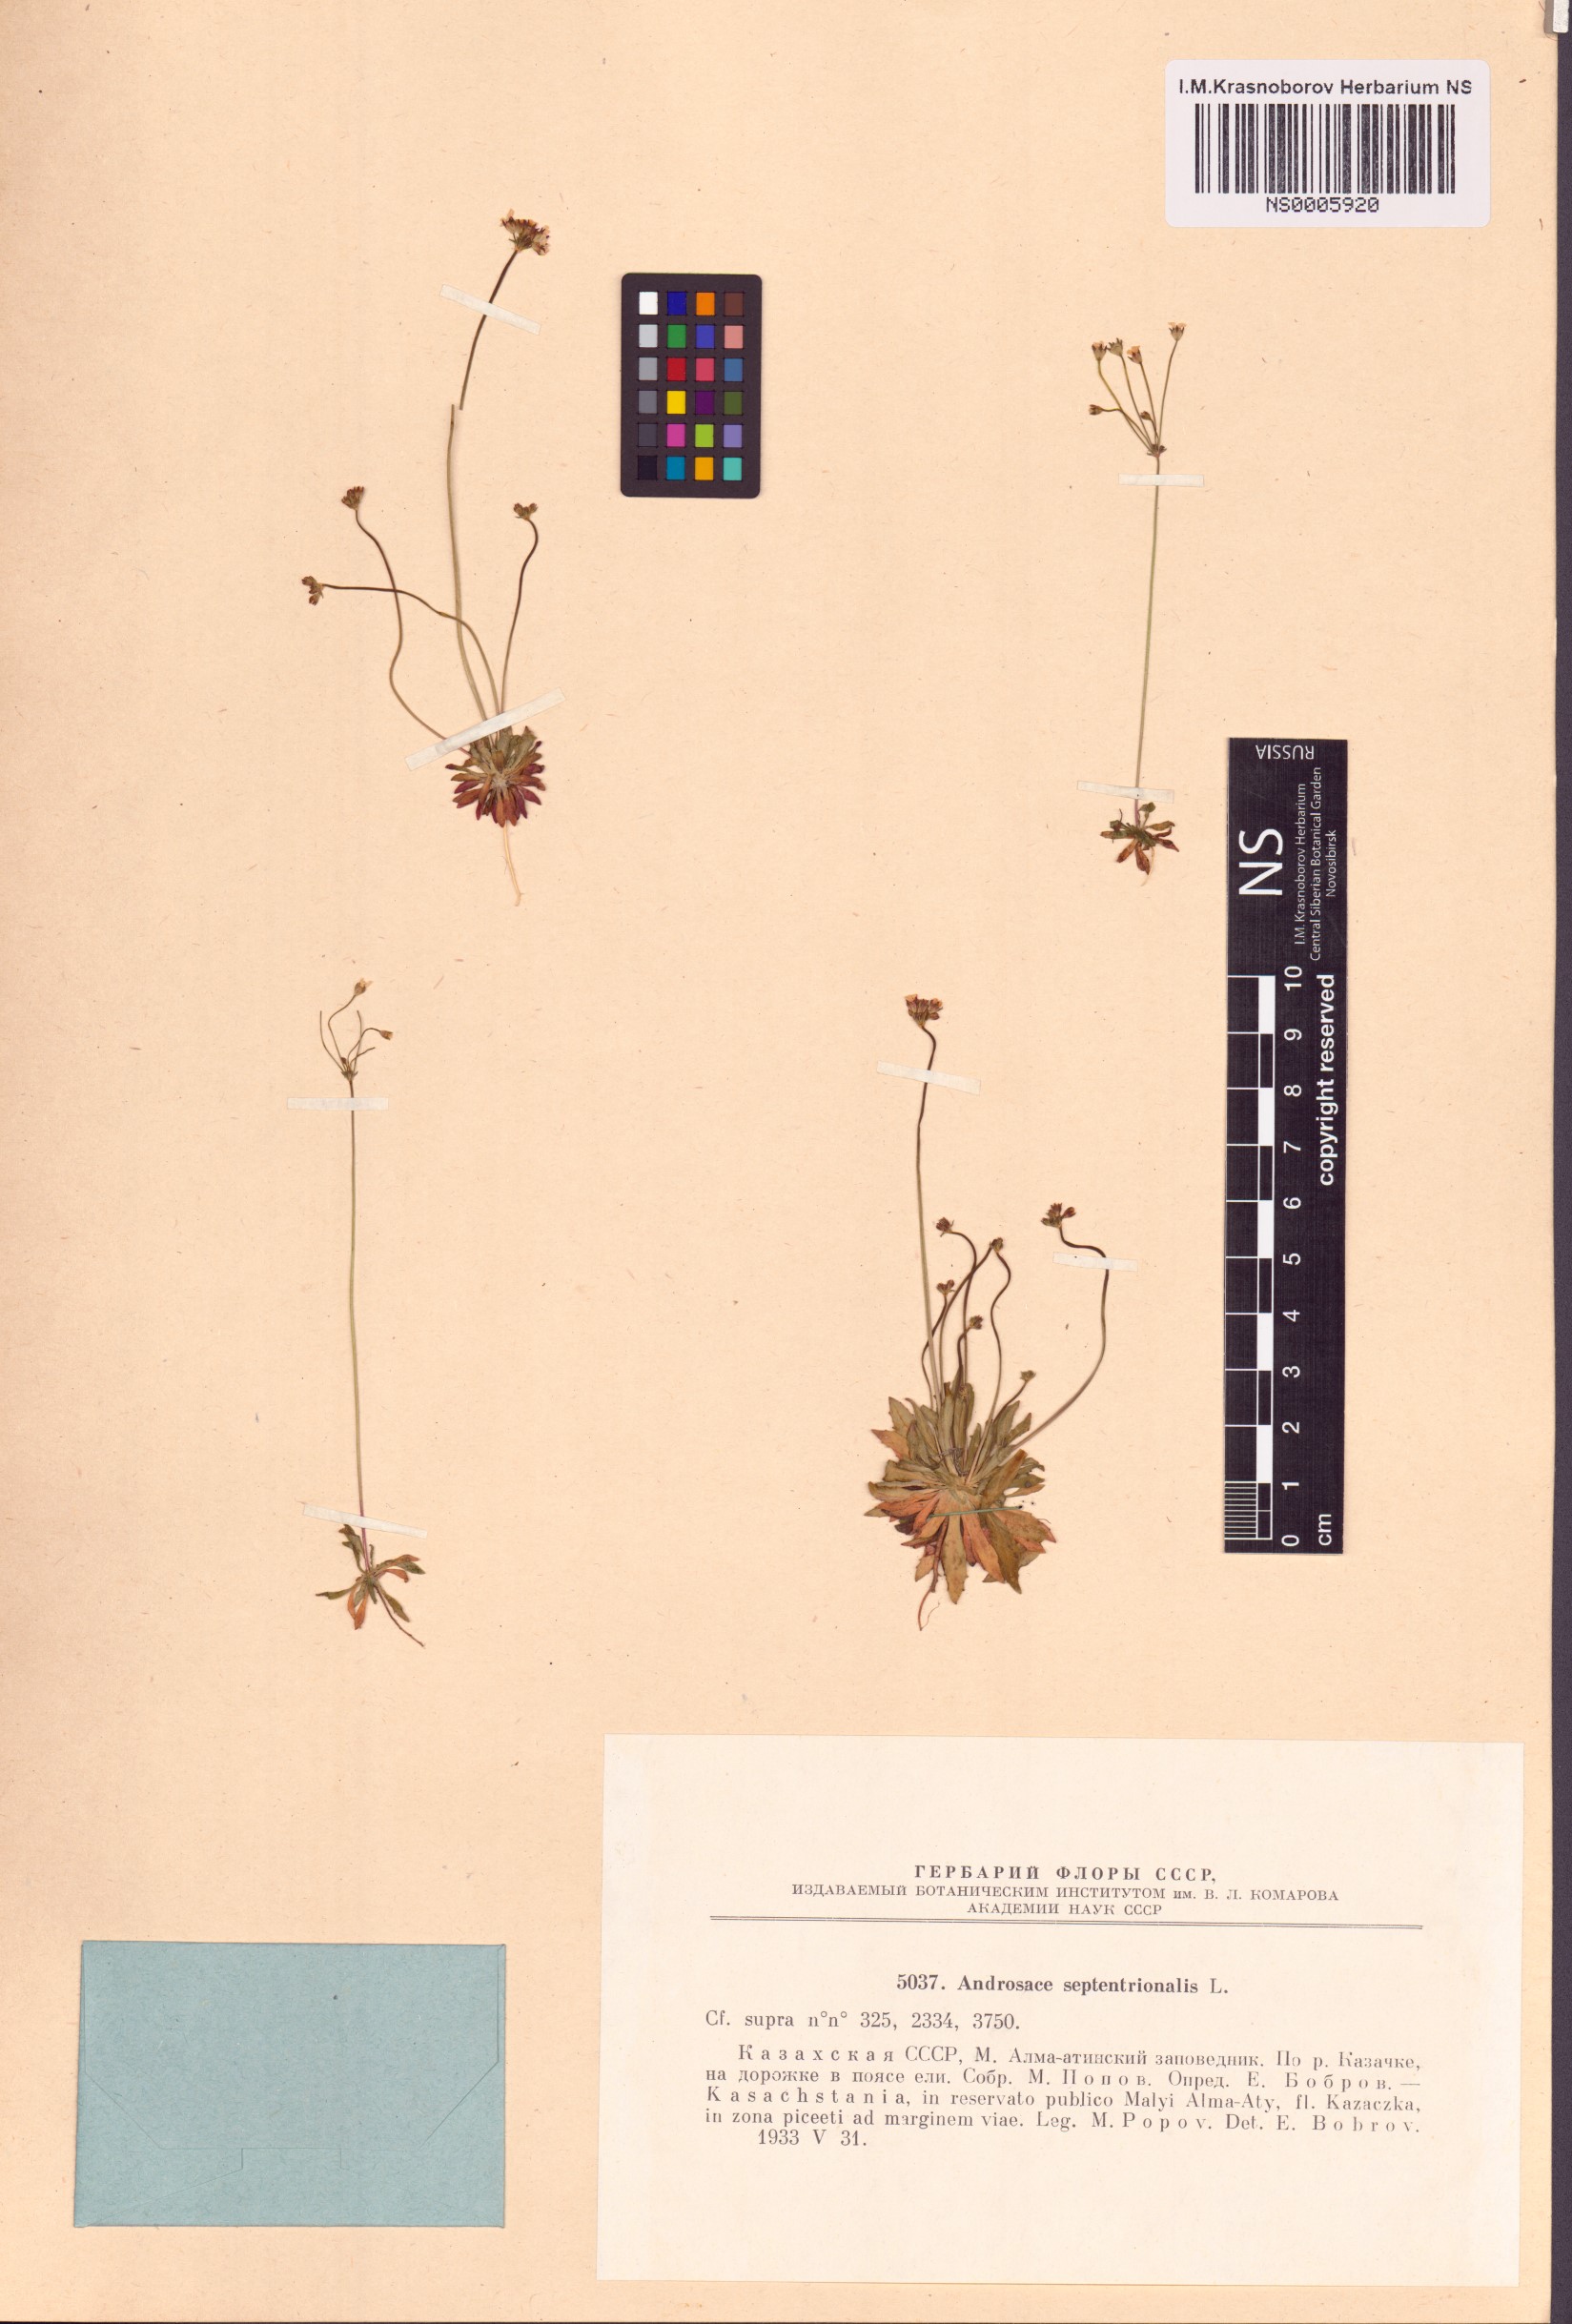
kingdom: Plantae
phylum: Tracheophyta
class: Magnoliopsida
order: Ericales
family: Primulaceae
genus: Androsace
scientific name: Androsace septentrionalis
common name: Hairy northern fairy-candelabra
